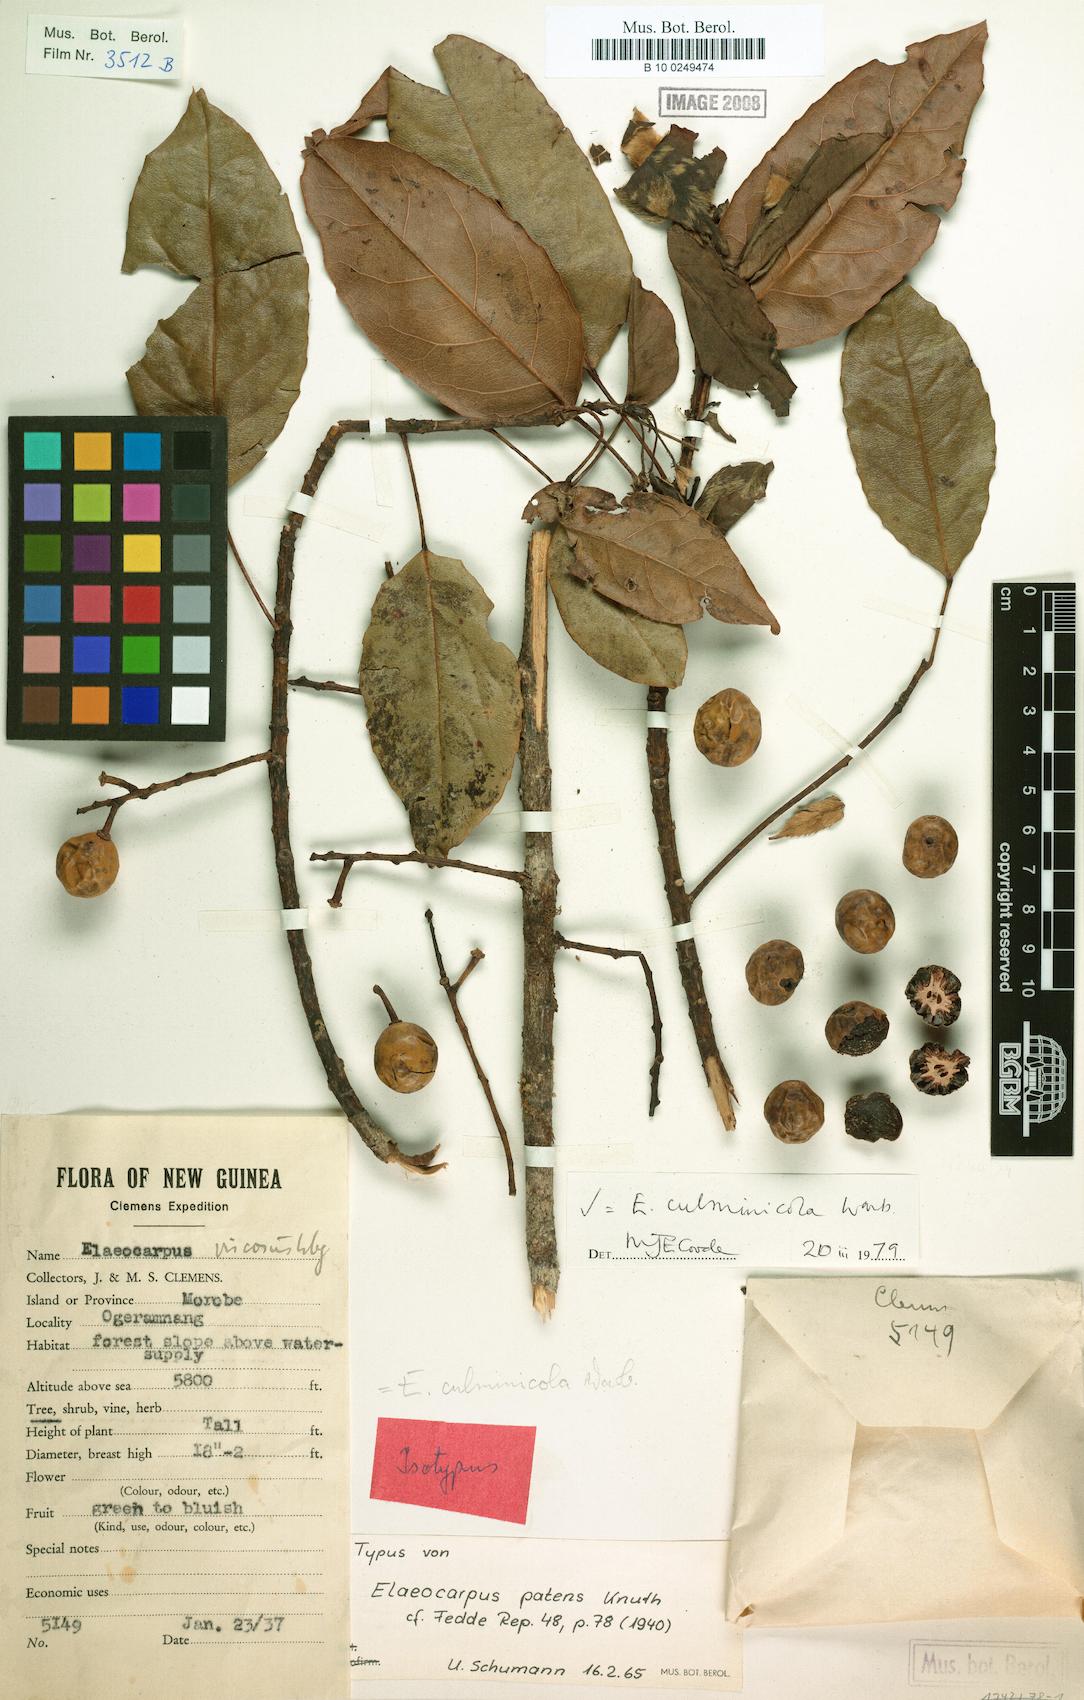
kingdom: Plantae
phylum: Tracheophyta
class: Magnoliopsida
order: Oxalidales
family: Elaeocarpaceae
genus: Elaeocarpus
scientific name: Elaeocarpus culminicola
